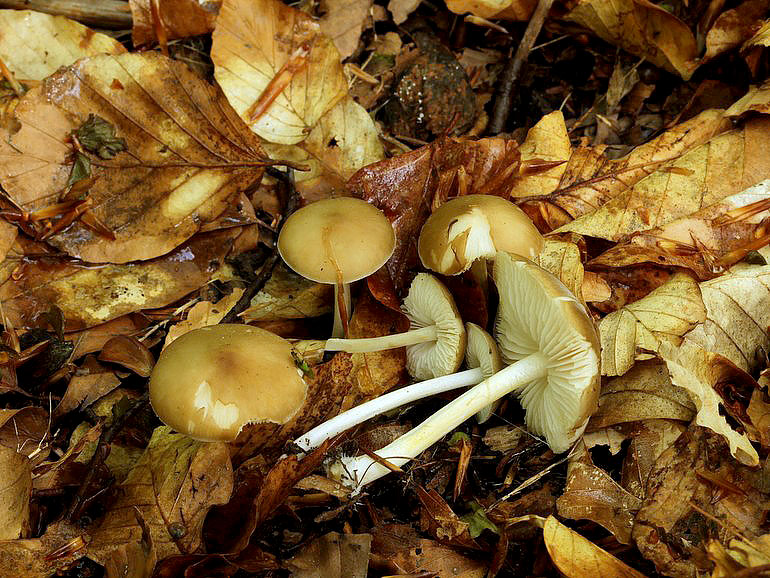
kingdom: Fungi
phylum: Basidiomycota
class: Agaricomycetes
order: Agaricales
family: Porotheleaceae
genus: Hydropodia
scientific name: Hydropodia subalpina
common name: vår-fnugfod
